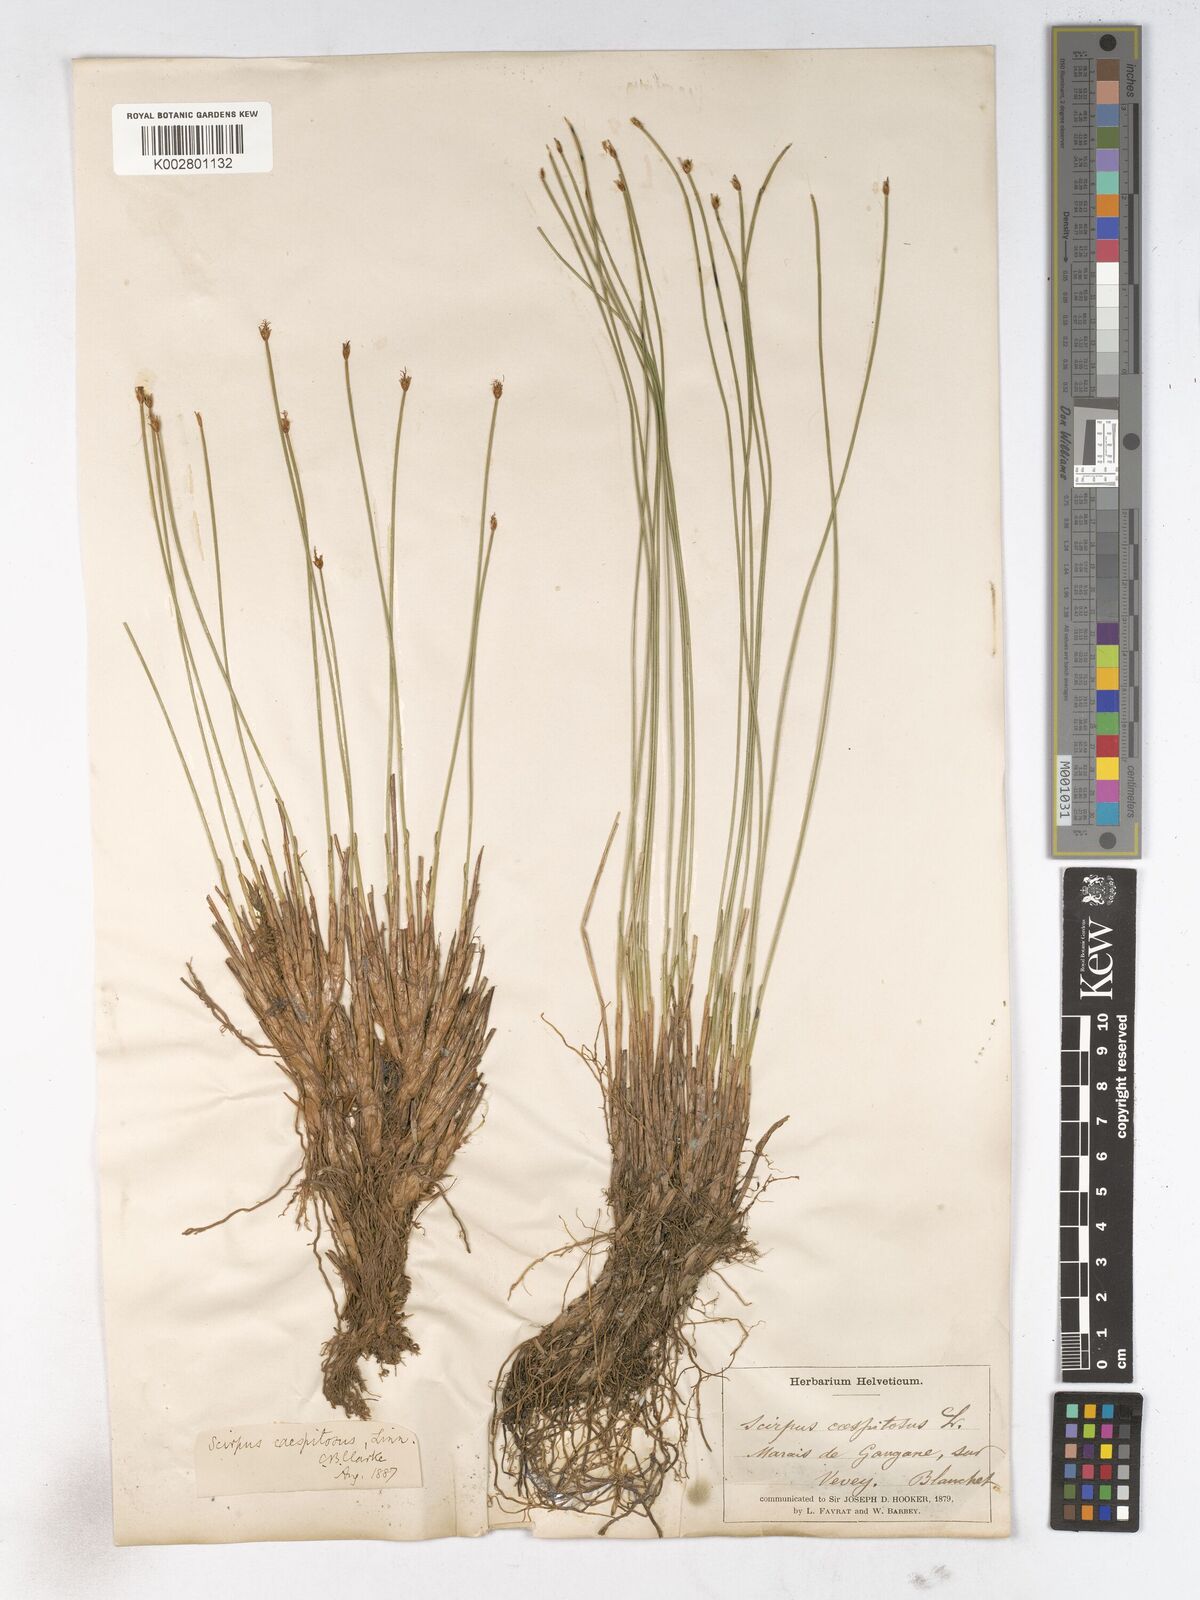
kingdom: Plantae
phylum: Tracheophyta
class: Liliopsida
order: Poales
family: Cyperaceae
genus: Trichophorum
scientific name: Trichophorum cespitosum
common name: Cespitose bulrush
